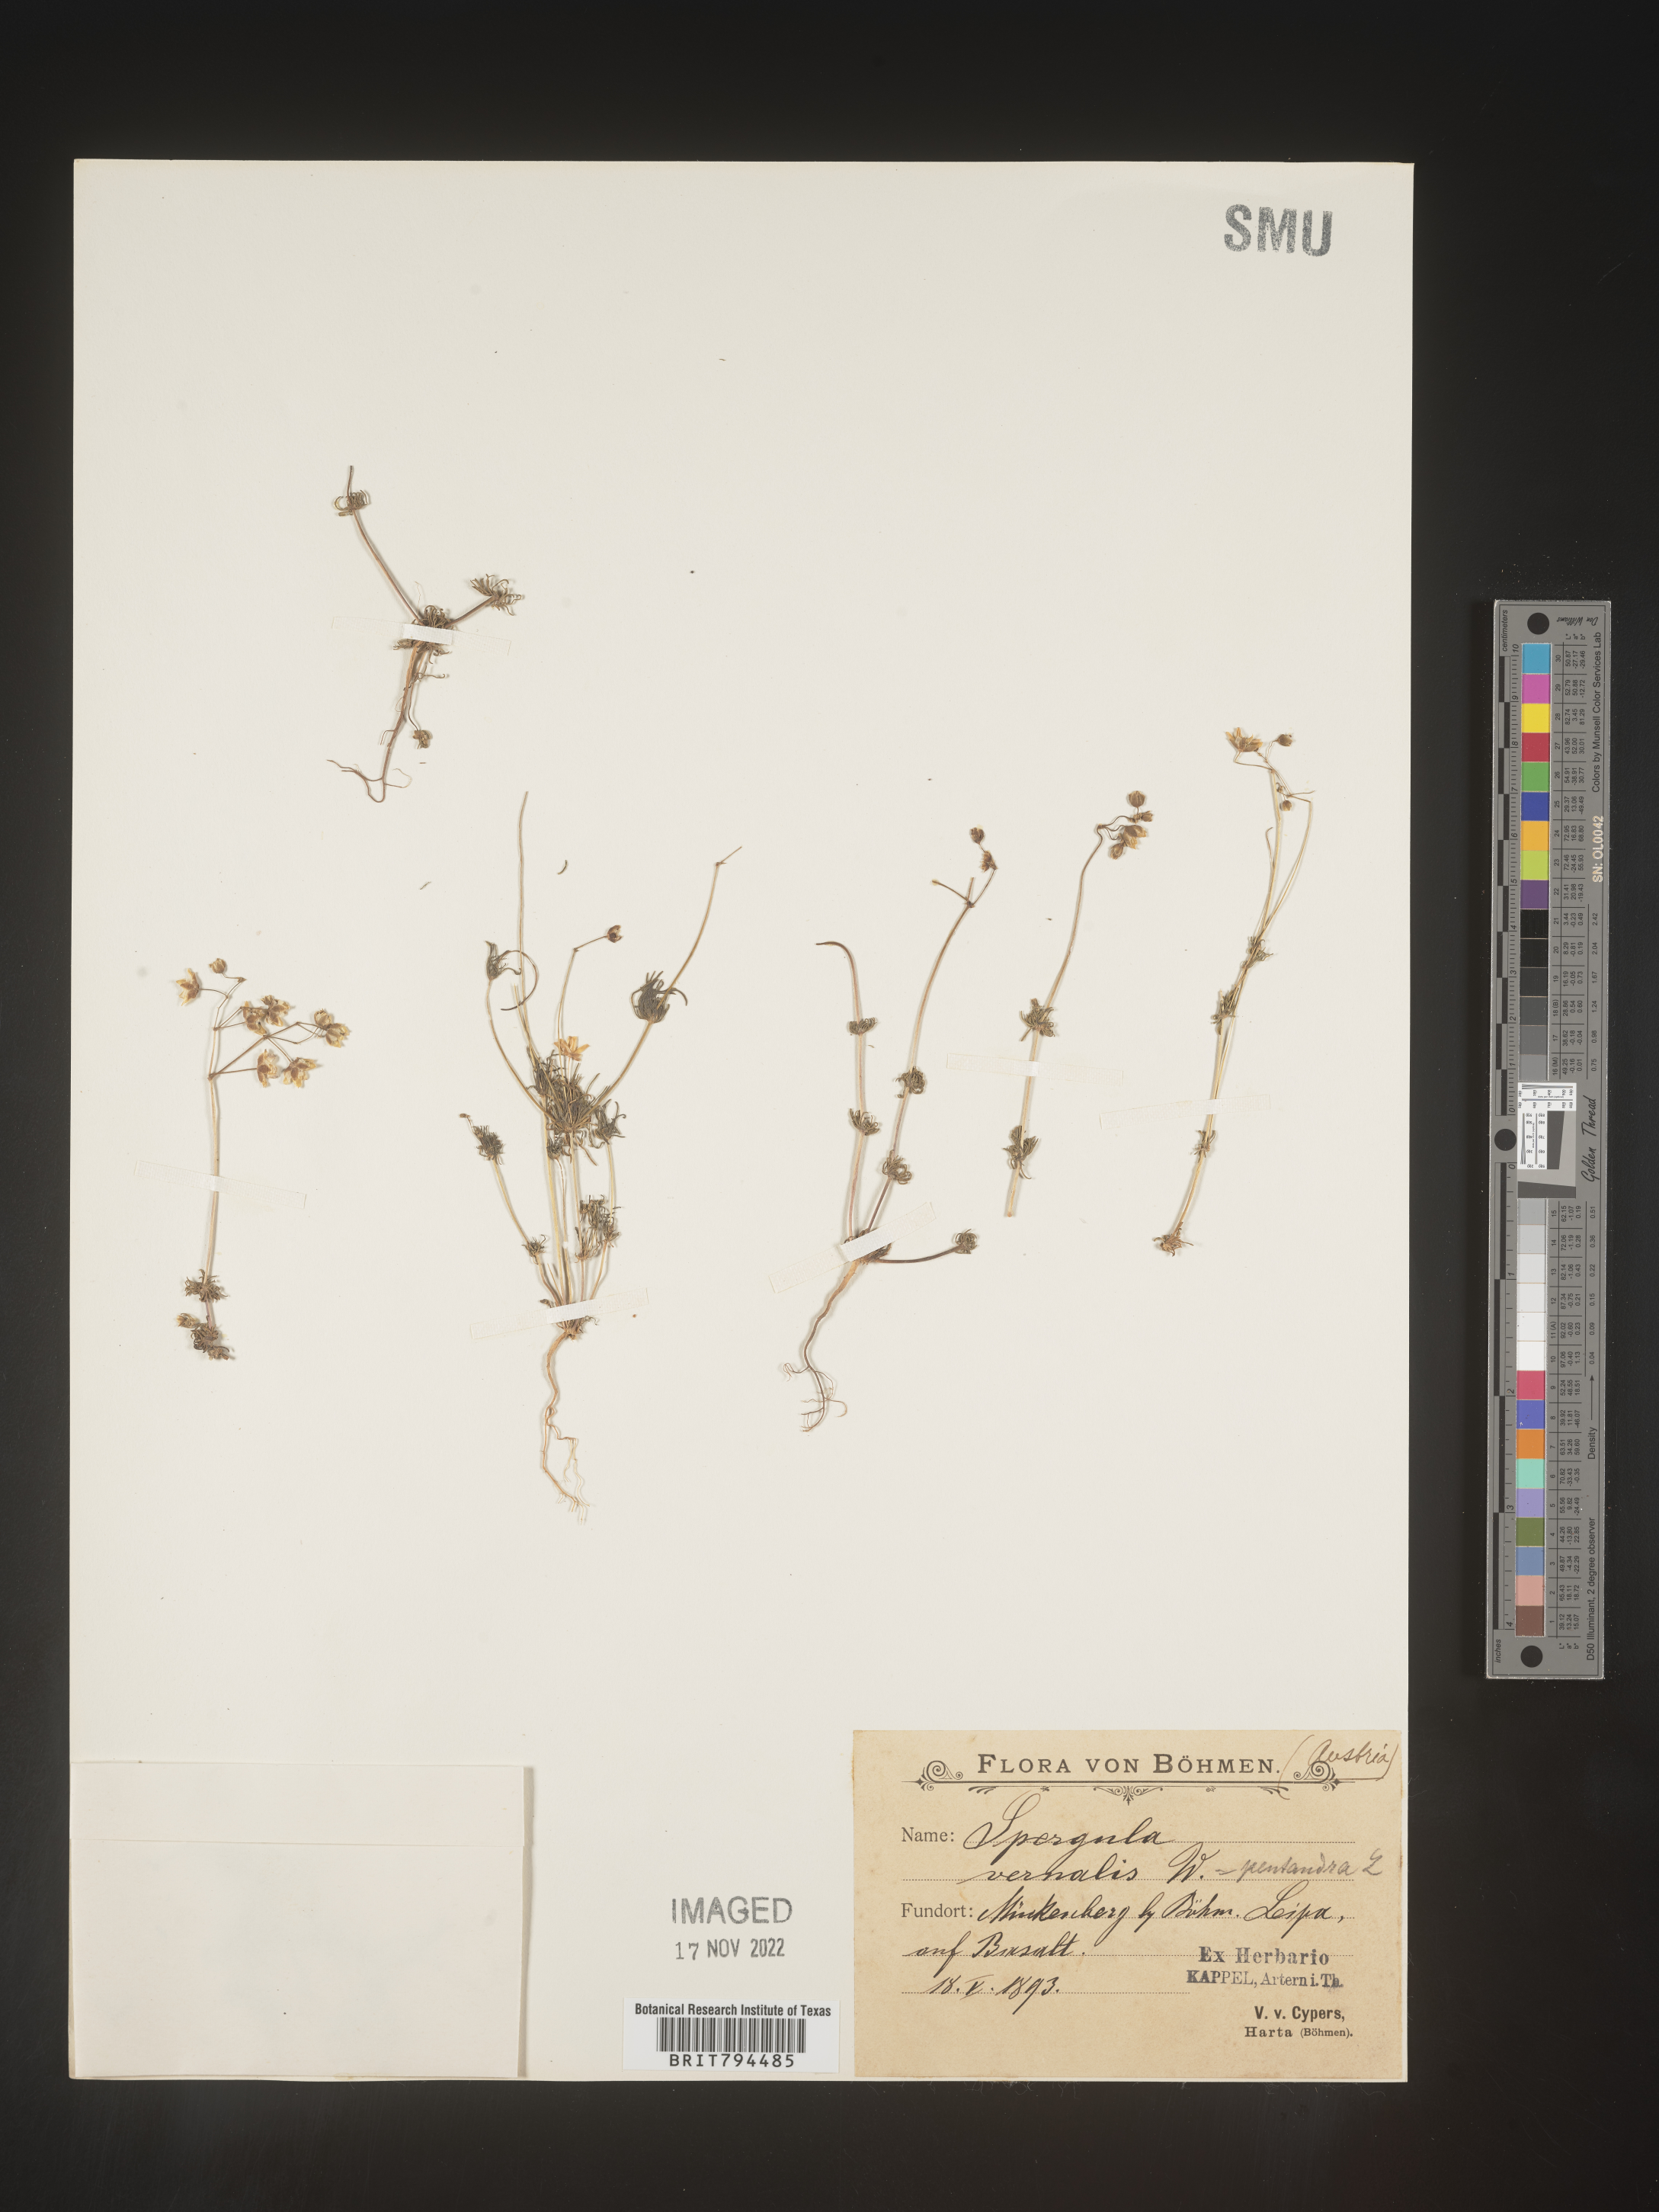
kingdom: Plantae
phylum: Tracheophyta
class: Magnoliopsida
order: Caryophyllales
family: Caryophyllaceae
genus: Spergula
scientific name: Spergula pentandra
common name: Wingstem spurry
